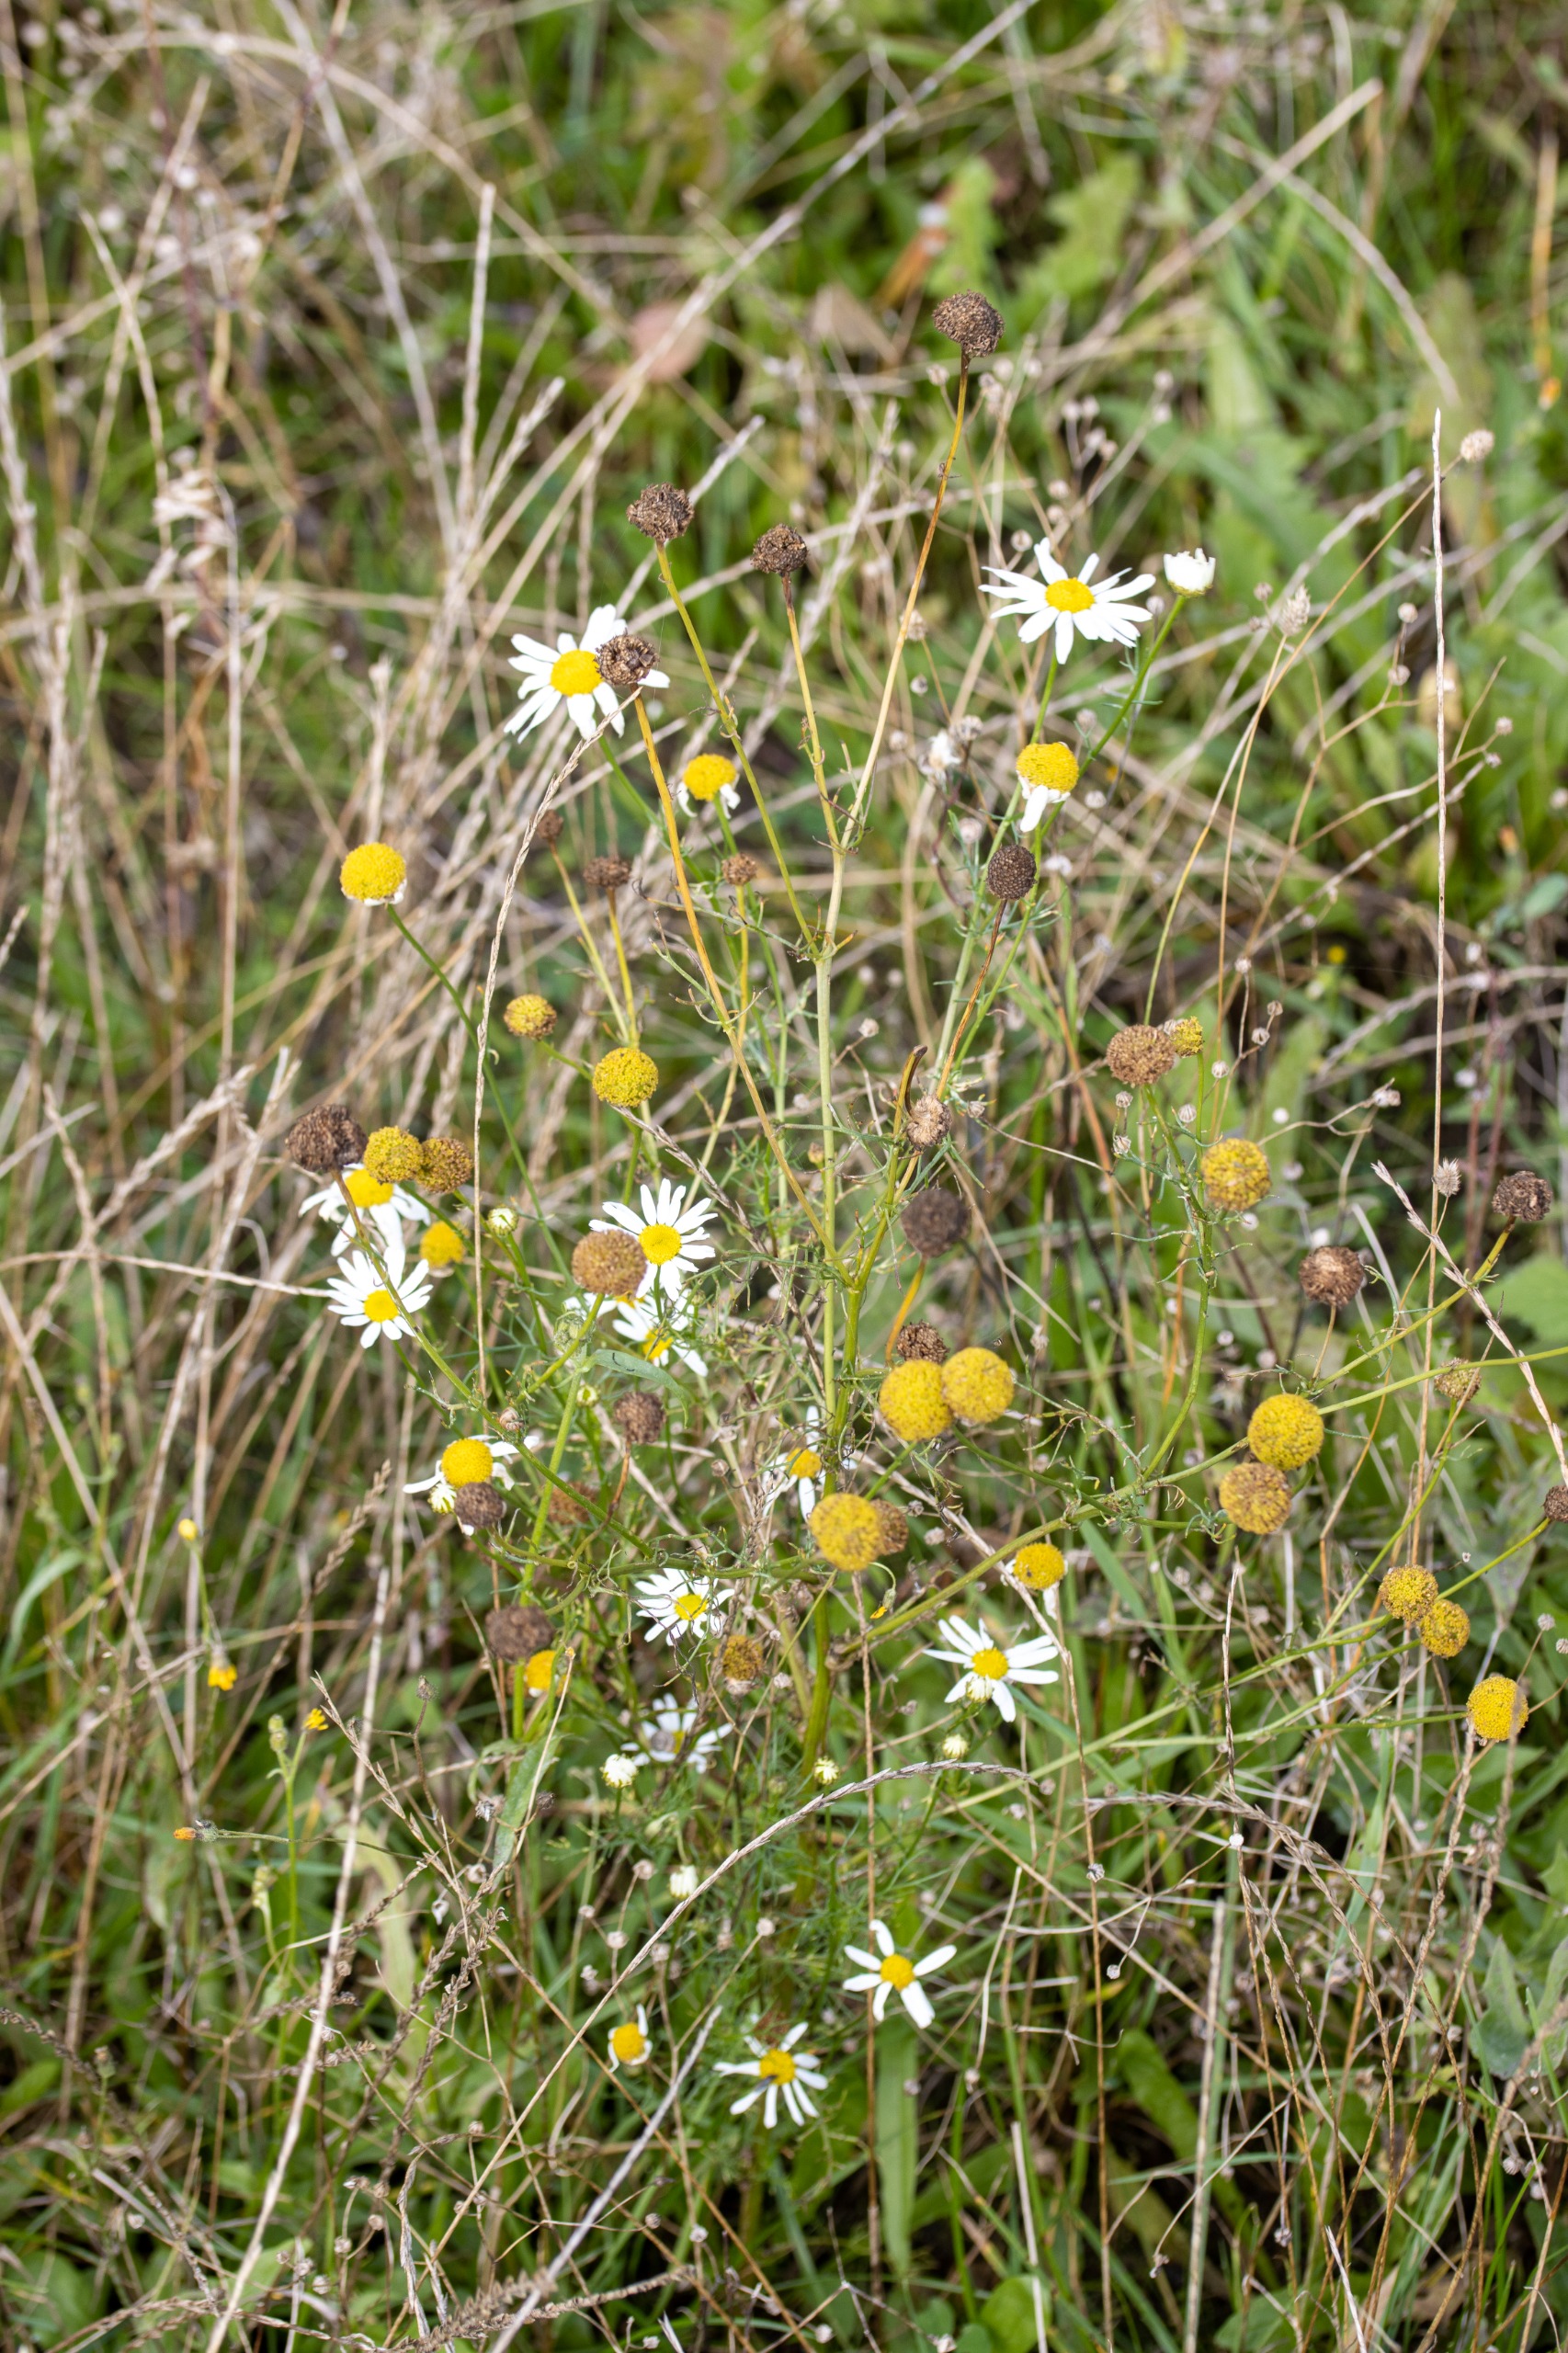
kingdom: Plantae
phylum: Tracheophyta
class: Magnoliopsida
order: Asterales
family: Asteraceae
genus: Tripleurospermum
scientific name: Tripleurospermum inodorum
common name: Lugtløs kamille
